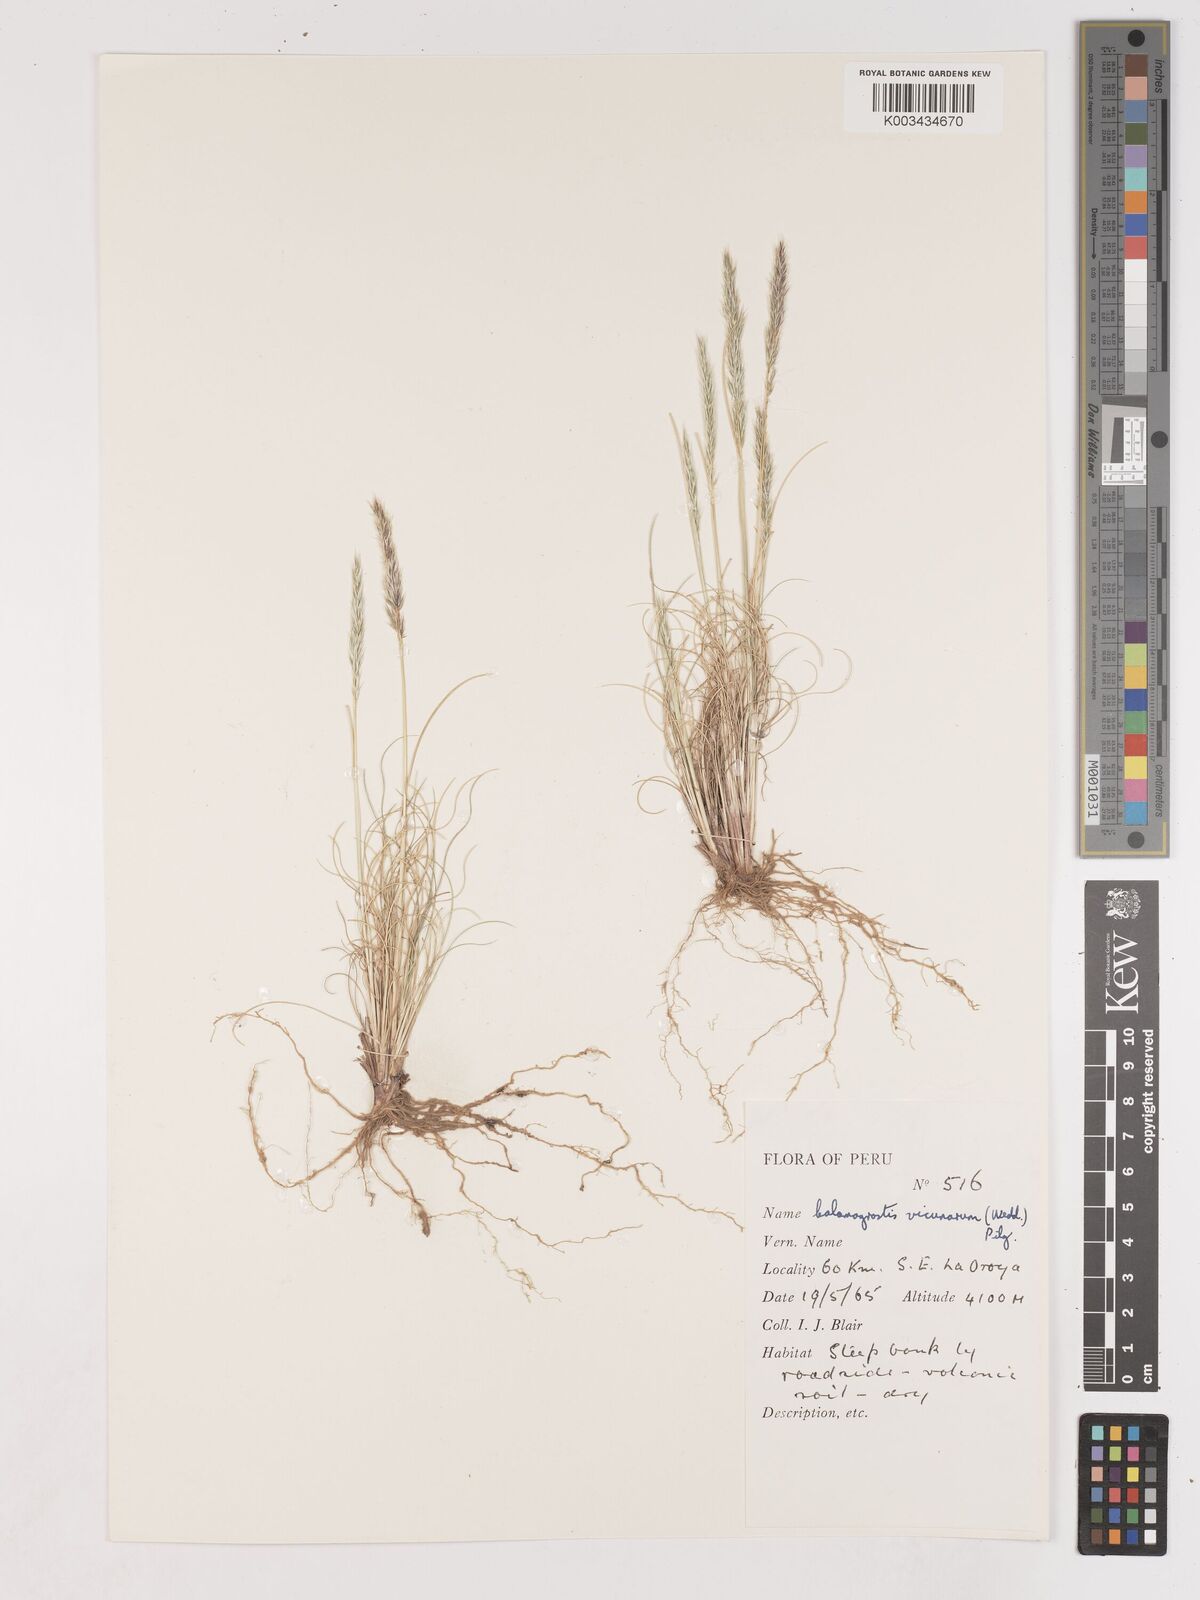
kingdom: Plantae
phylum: Tracheophyta
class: Liliopsida
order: Poales
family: Poaceae
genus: Cinnagrostis
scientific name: Cinnagrostis vicunarum
